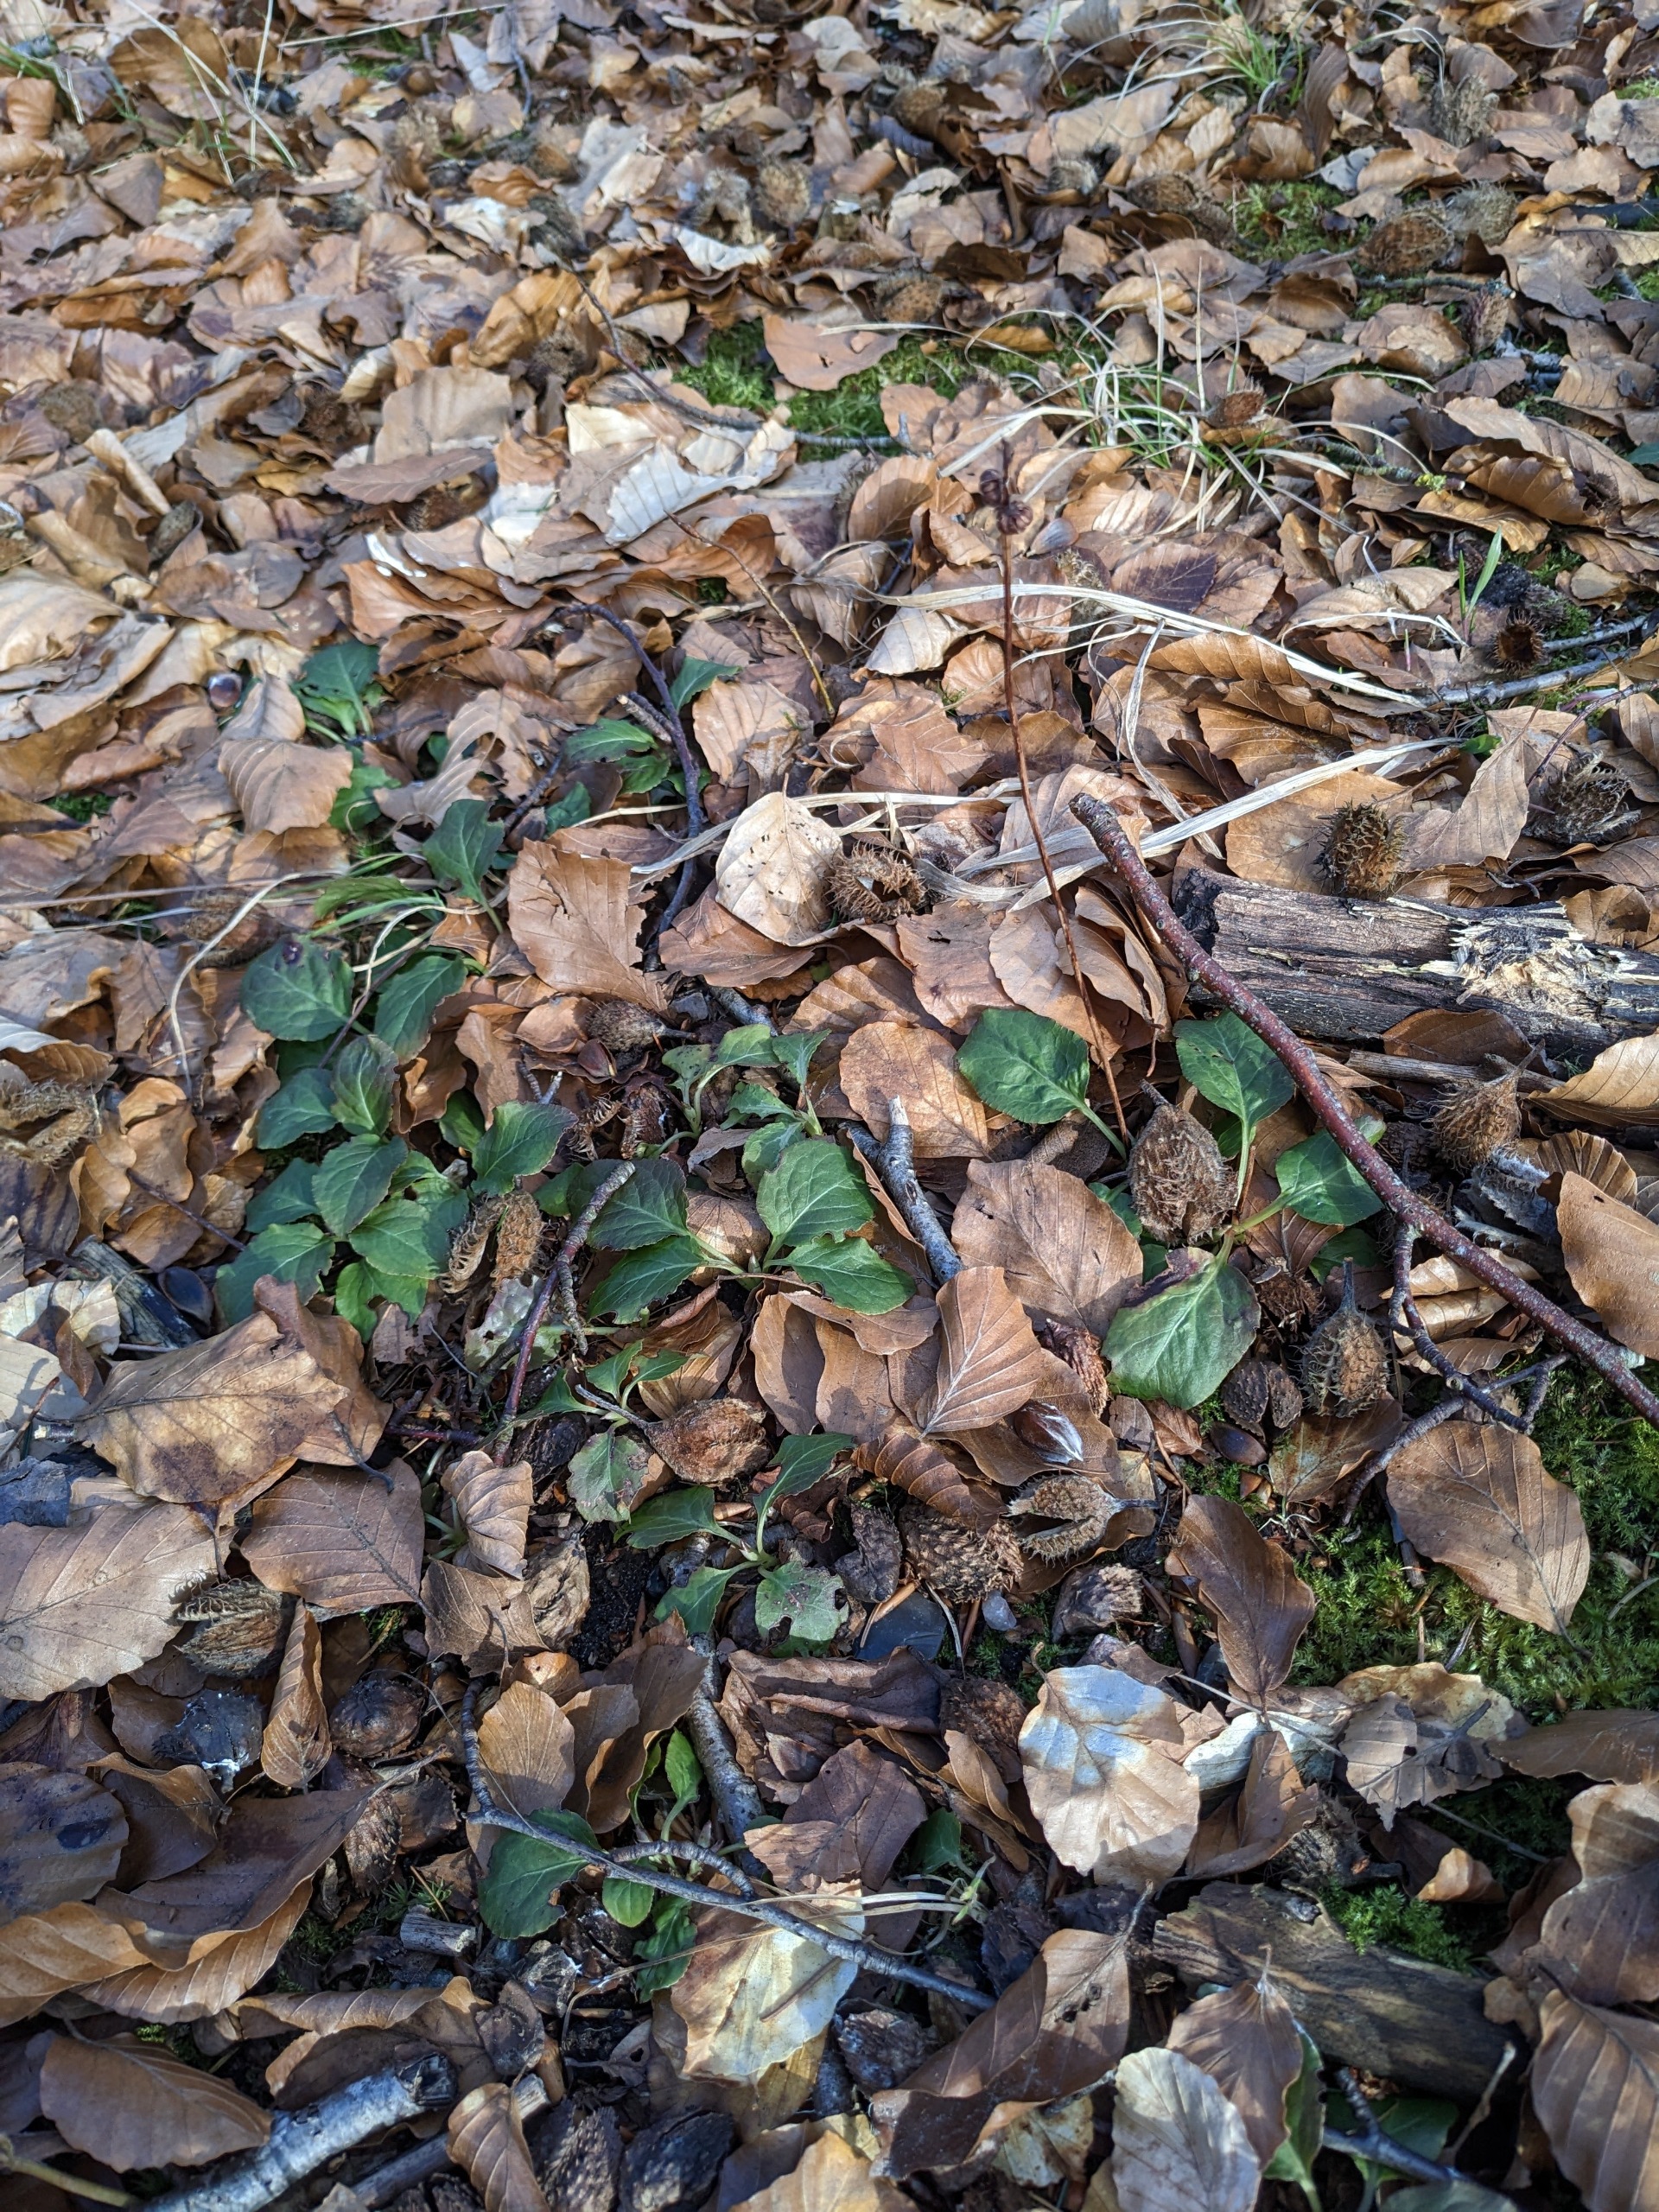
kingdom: Plantae
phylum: Tracheophyta
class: Magnoliopsida
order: Ericales
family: Ericaceae
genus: Pyrola
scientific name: Pyrola minor
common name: Liden vintergrøn
